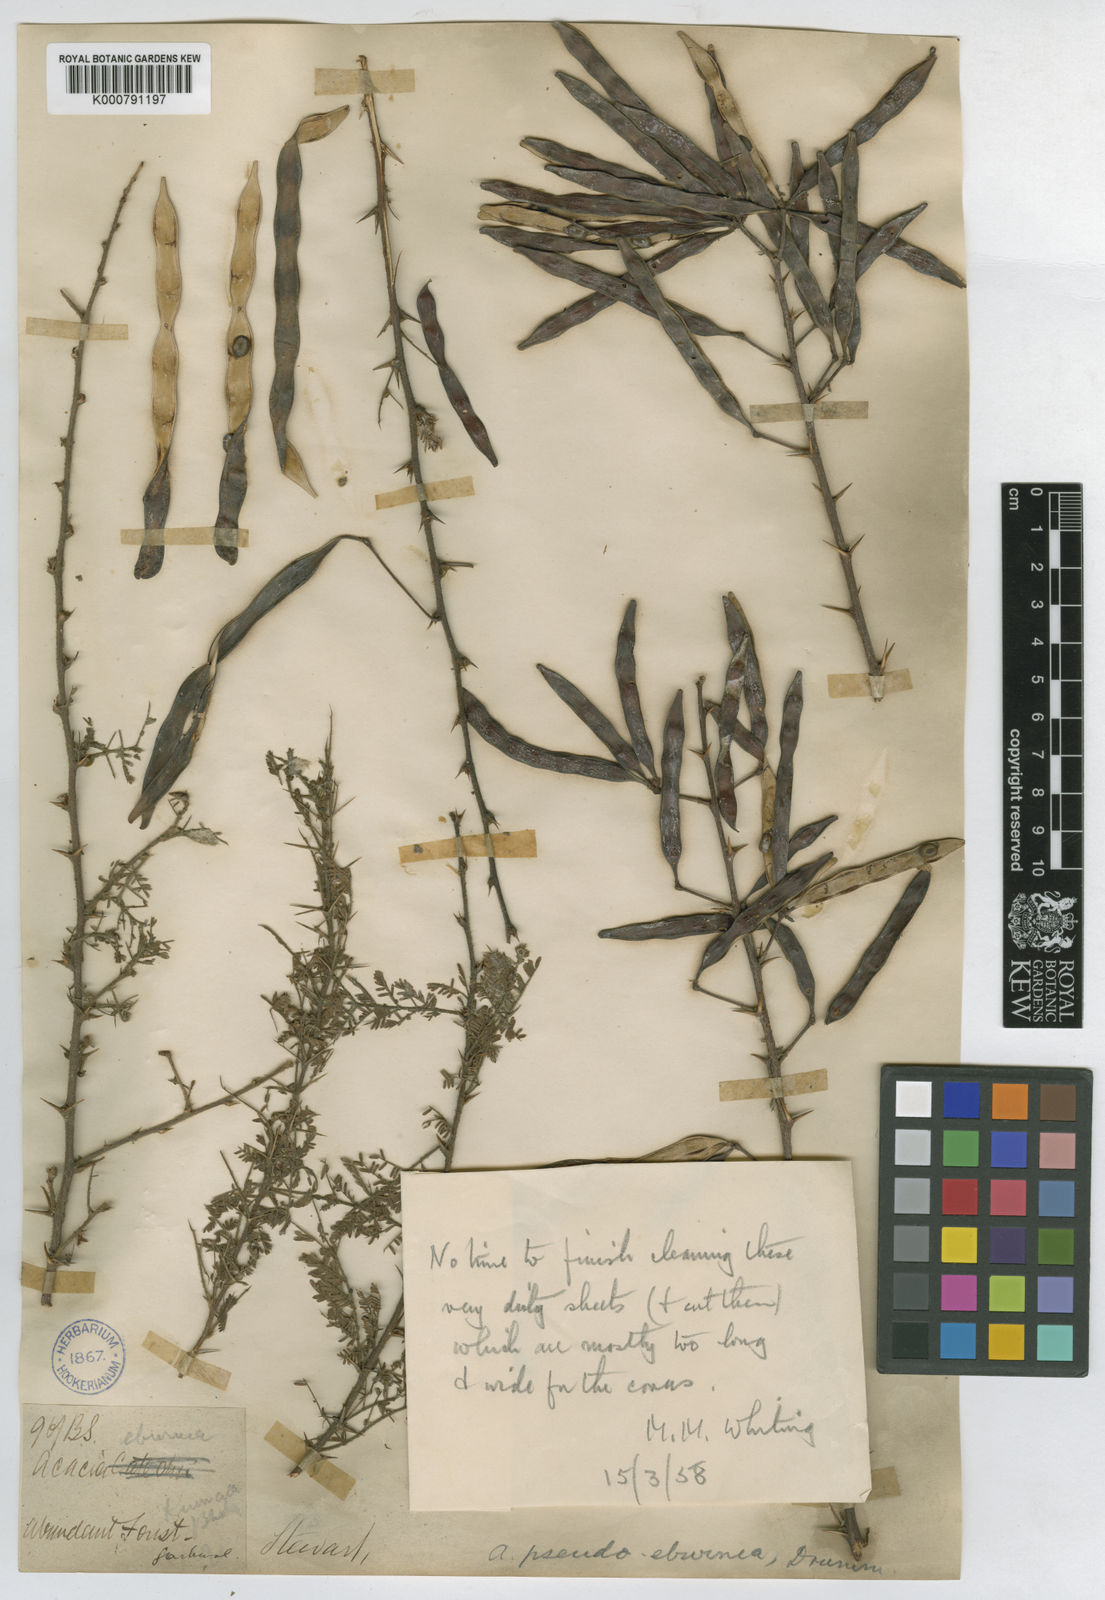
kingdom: Plantae
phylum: Tracheophyta
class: Magnoliopsida
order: Fabales
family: Fabaceae
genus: Vachellia
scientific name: Vachellia pseudoeburnea
